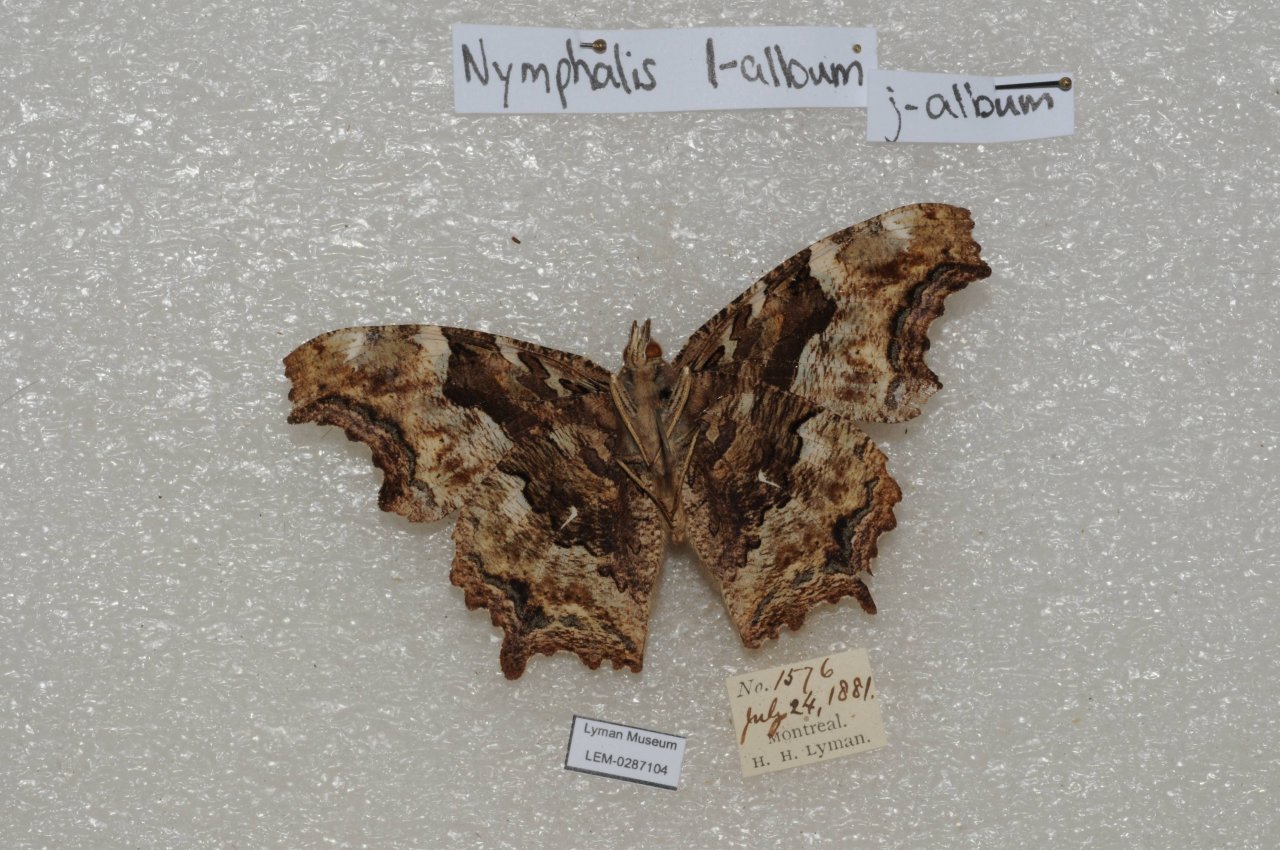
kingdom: Animalia
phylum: Arthropoda
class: Insecta
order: Lepidoptera
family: Nymphalidae
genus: Polygonia
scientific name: Polygonia vaualbum
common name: Compton Tortoiseshell
